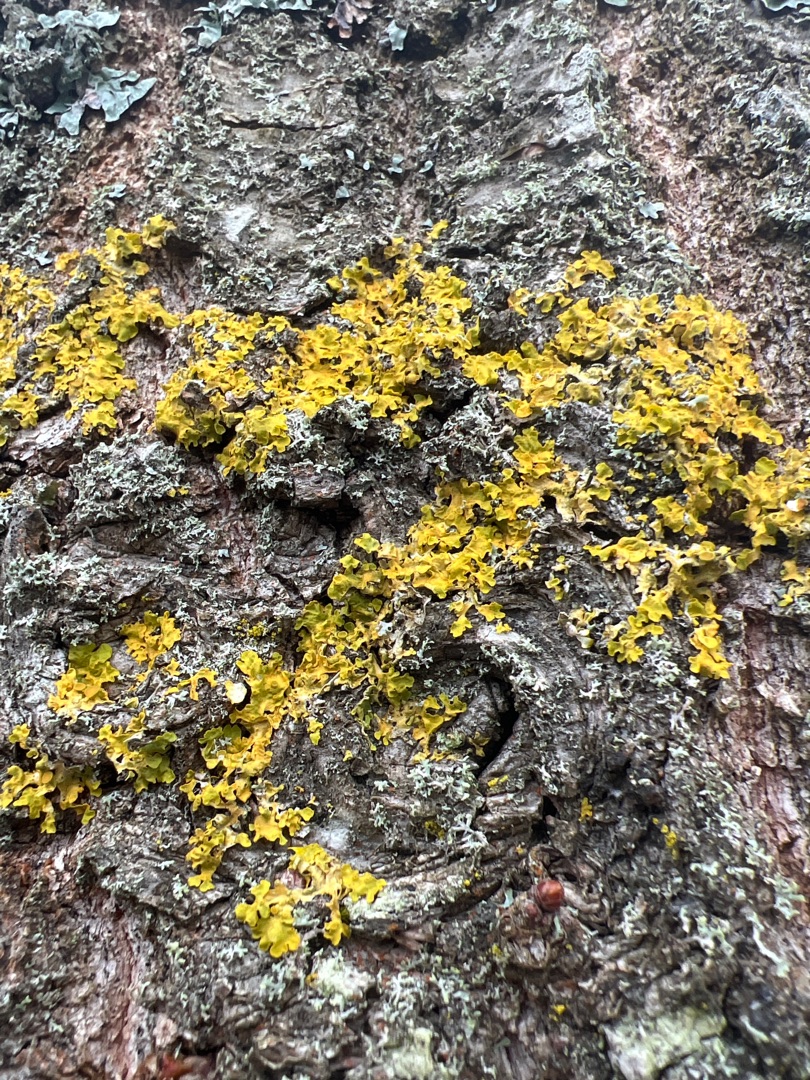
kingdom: Fungi
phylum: Ascomycota
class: Lecanoromycetes
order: Teloschistales
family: Teloschistaceae
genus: Xanthoria
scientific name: Xanthoria parietina
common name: Almindelig væggelav
